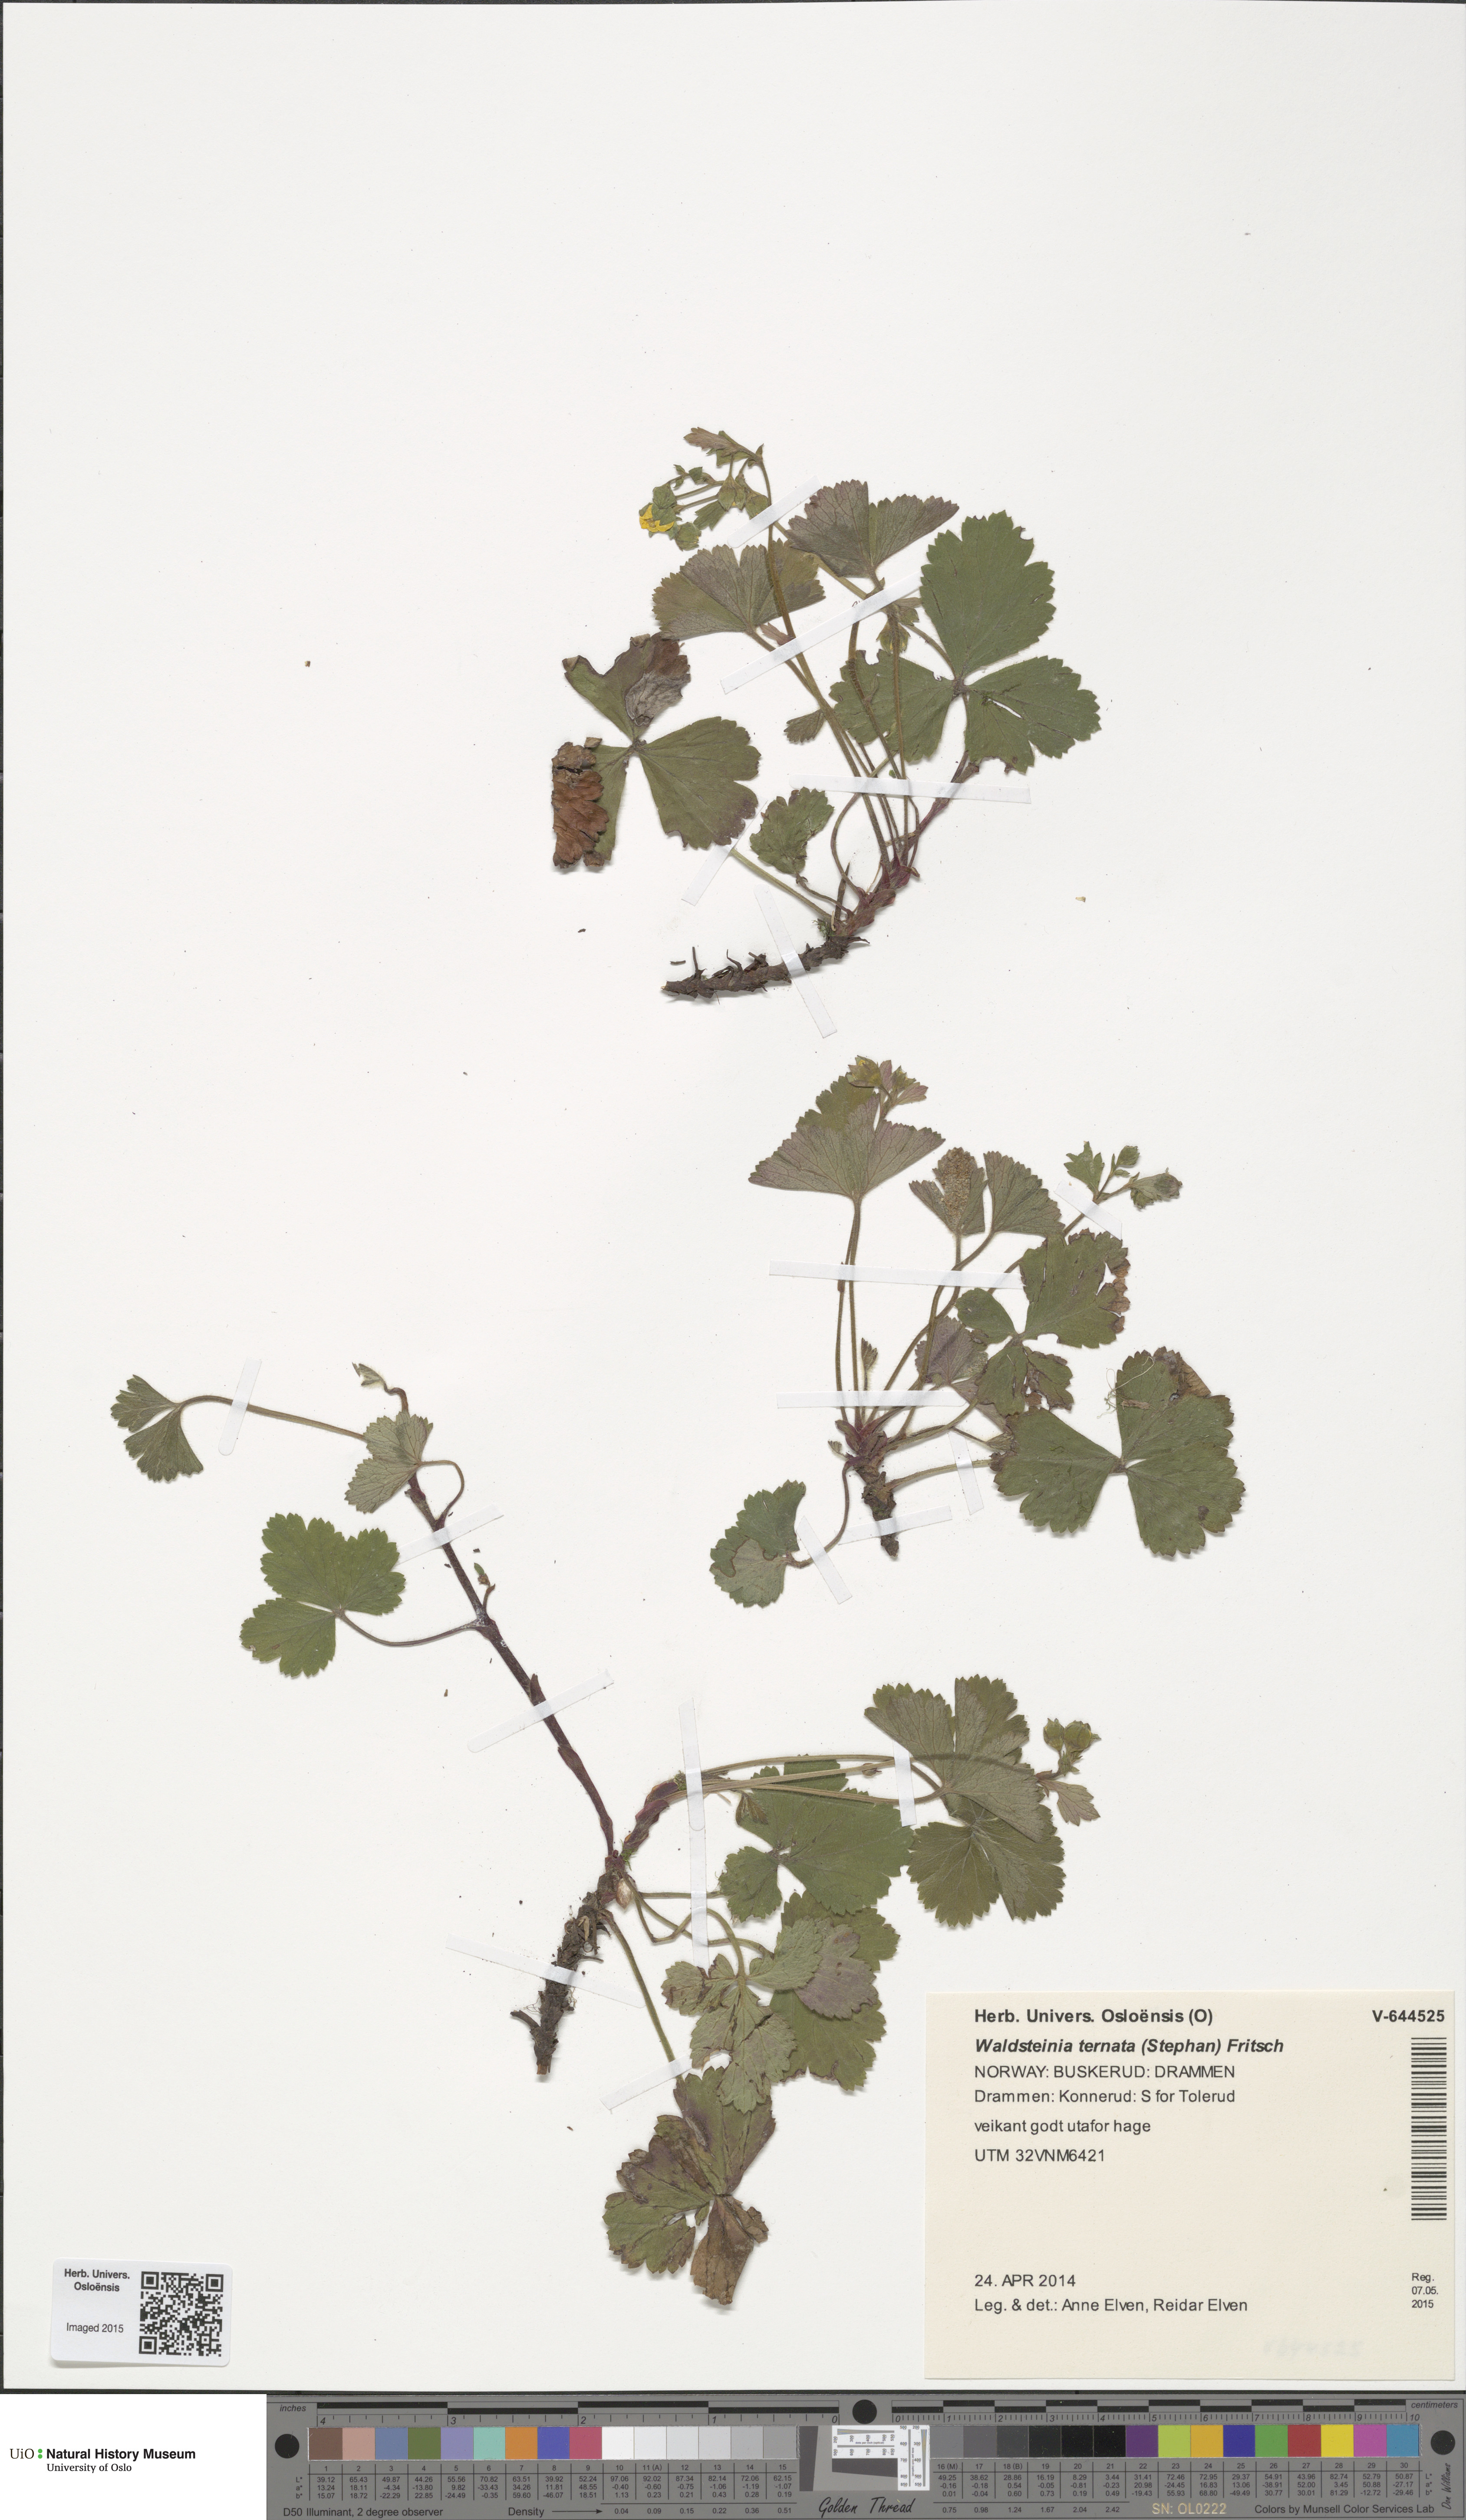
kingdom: Plantae
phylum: Tracheophyta
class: Magnoliopsida
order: Rosales
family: Rosaceae
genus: Geum
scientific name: Geum ternatum
